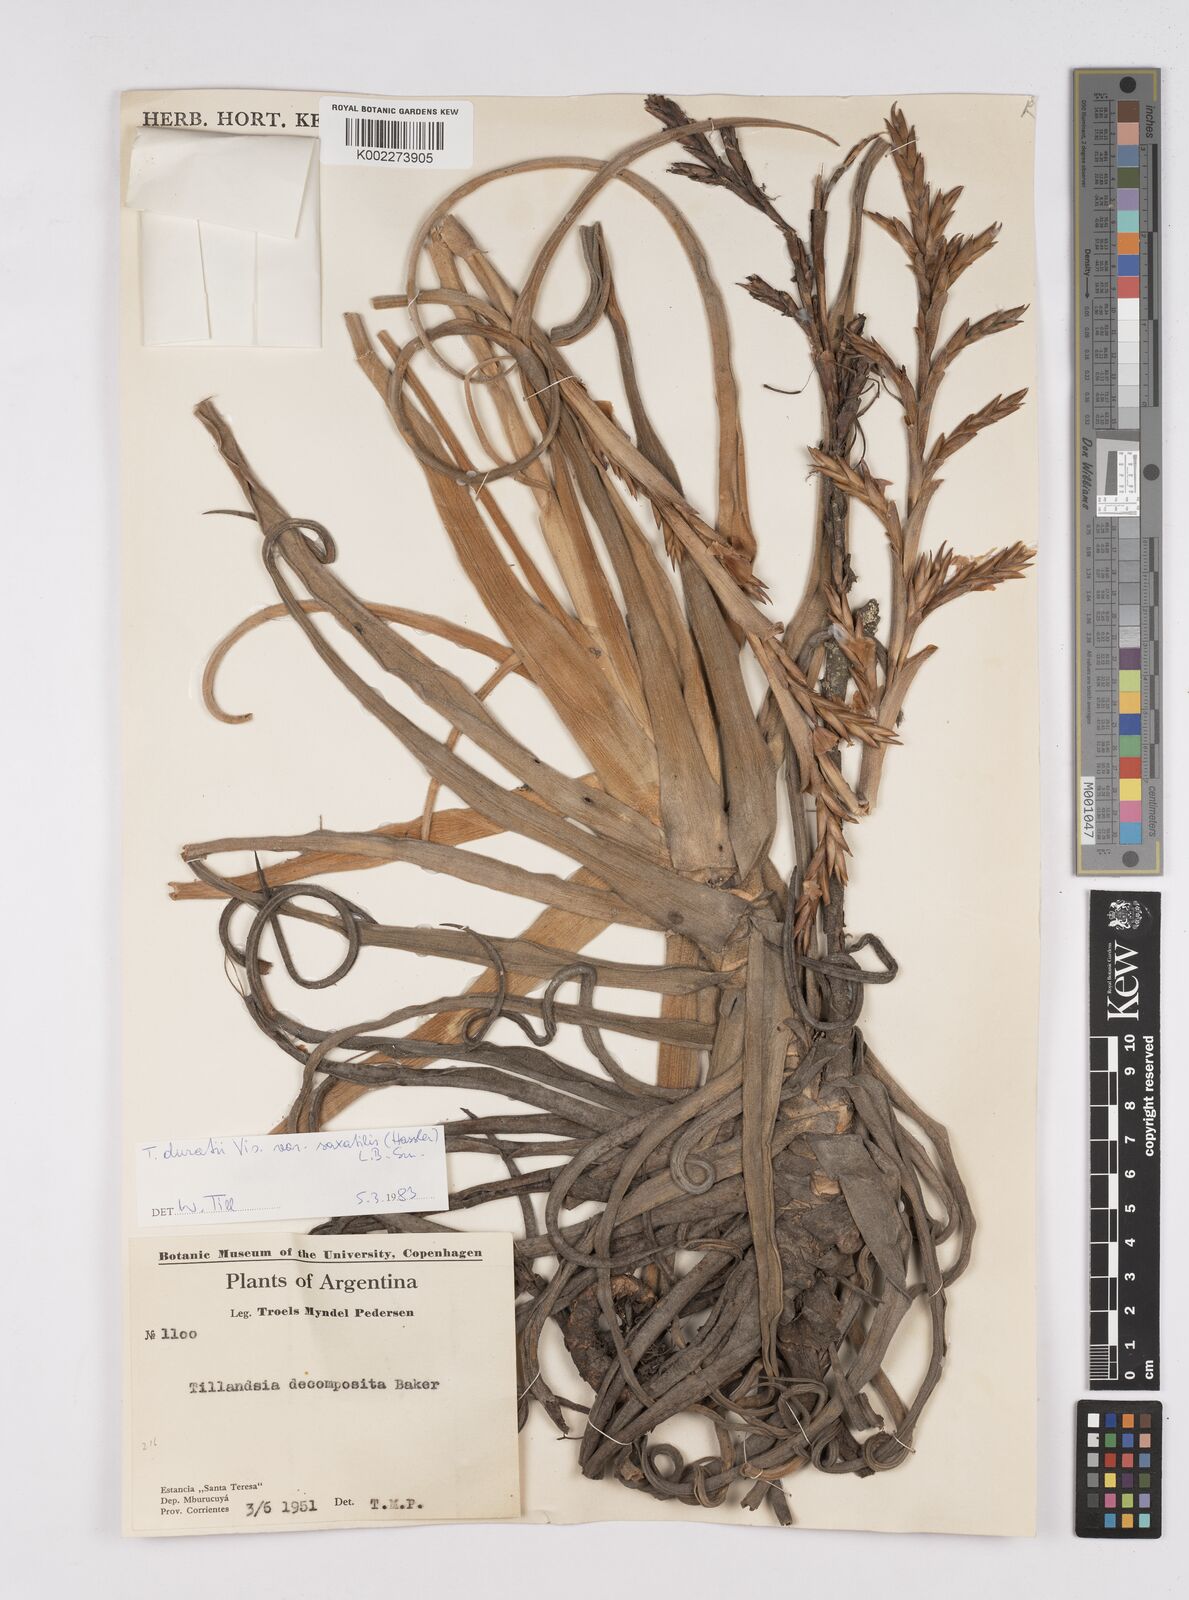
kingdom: Plantae
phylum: Tracheophyta
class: Liliopsida
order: Poales
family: Bromeliaceae
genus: Tillandsia
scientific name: Tillandsia duratii
